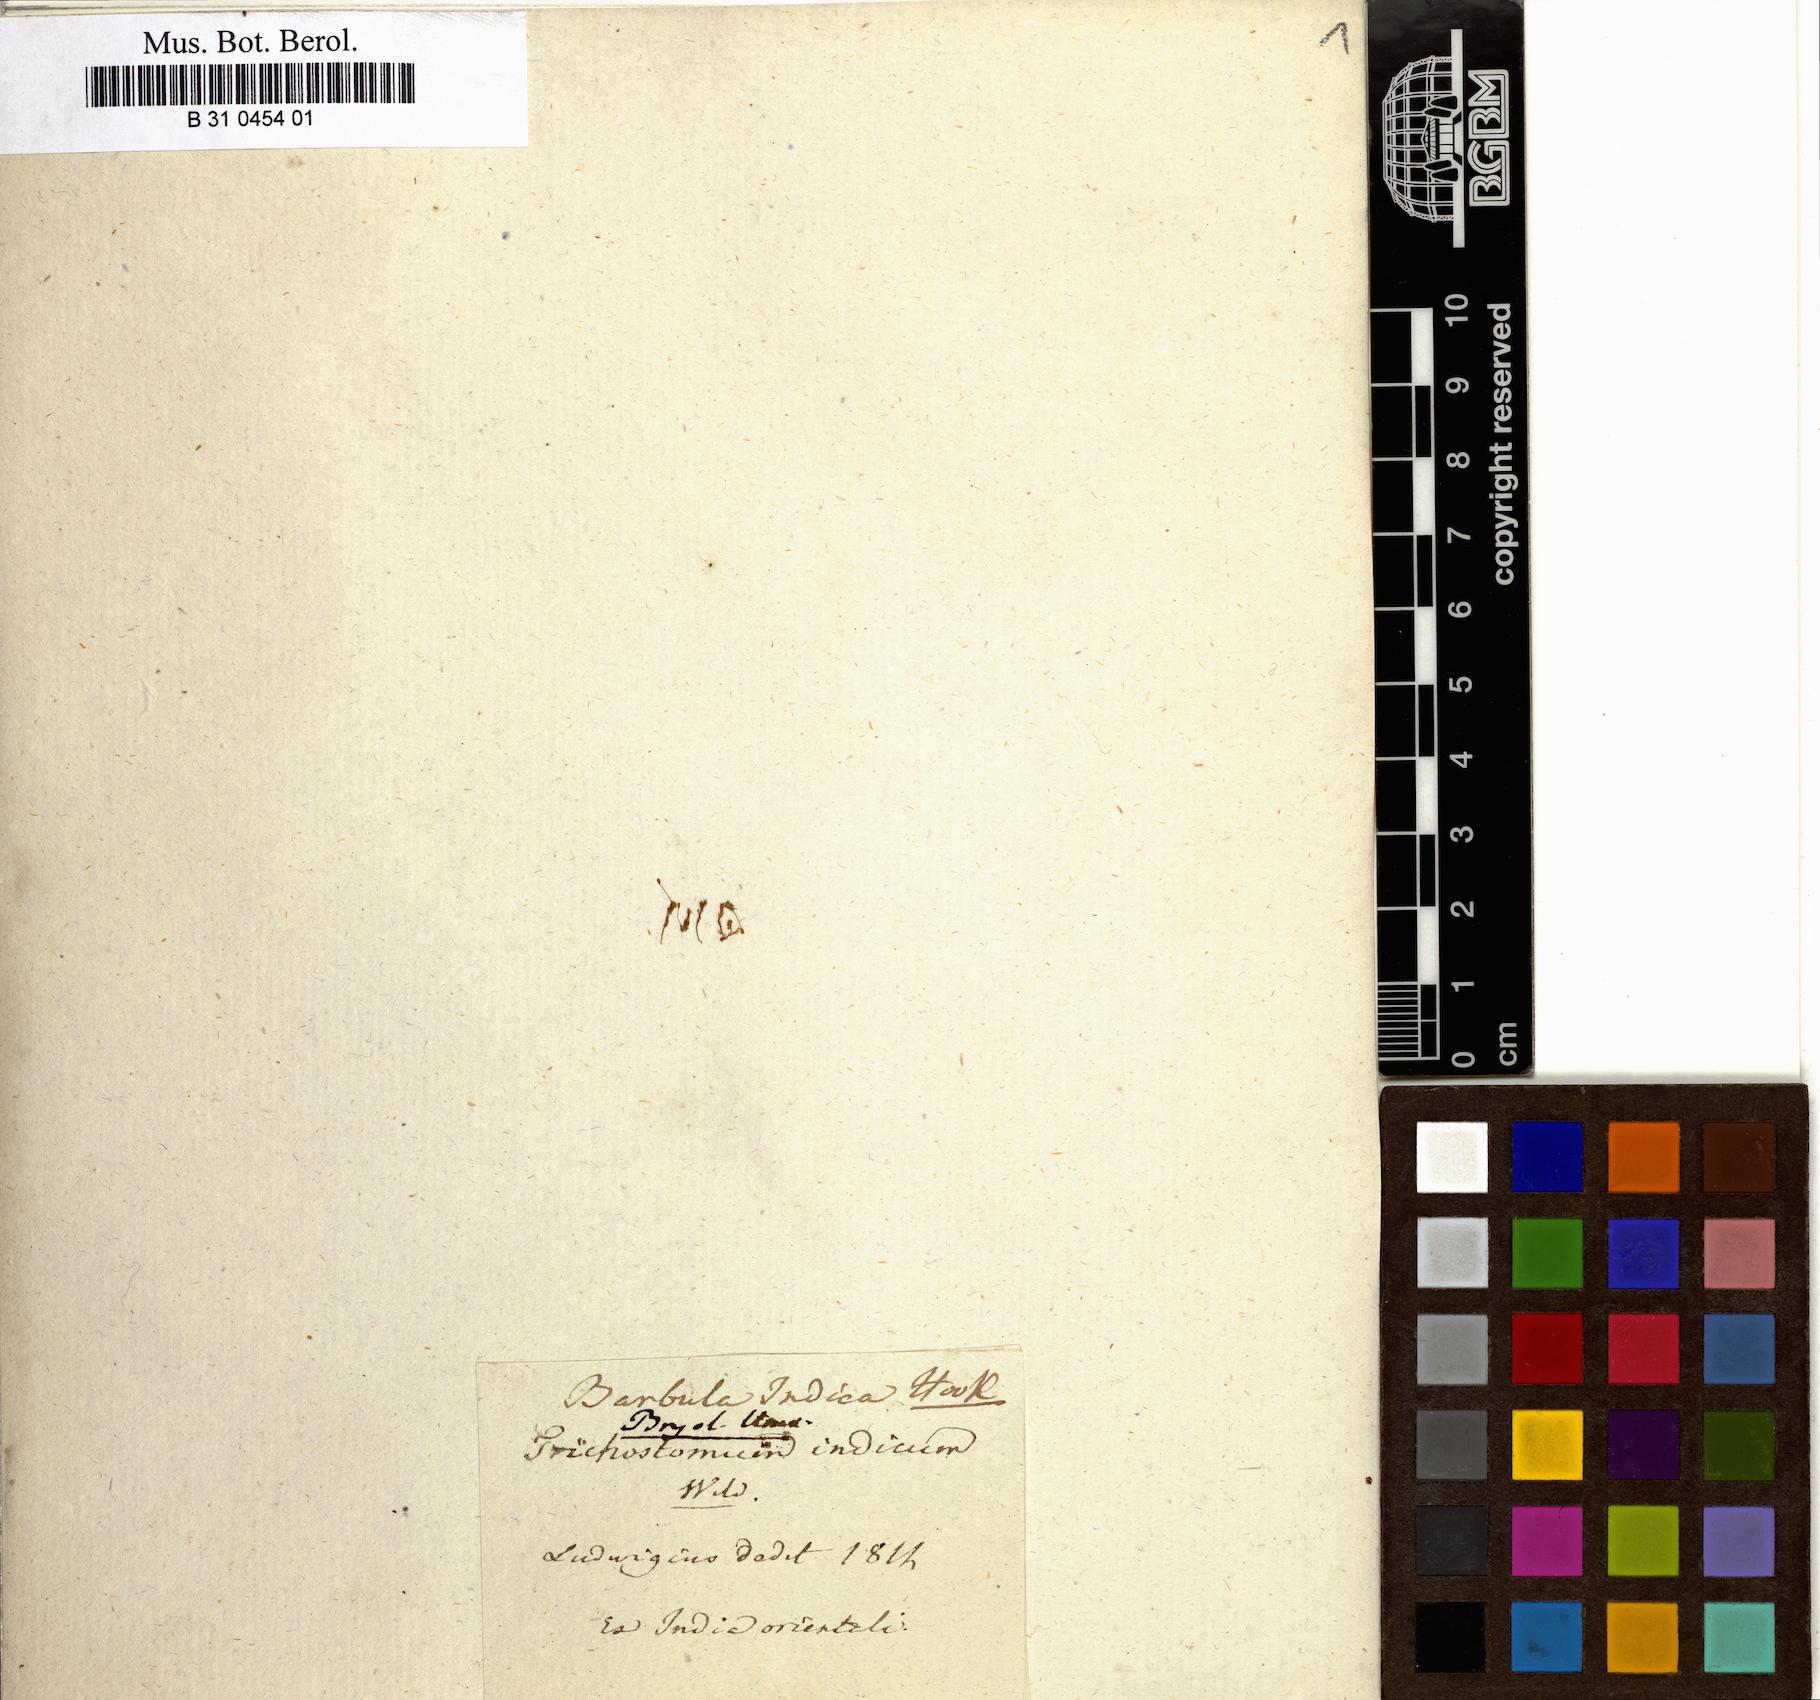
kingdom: Plantae
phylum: Bryophyta
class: Bryopsida
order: Grimmiales
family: Ptychomitriaceae
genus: Ptychomitrium
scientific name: Ptychomitrium indicum
